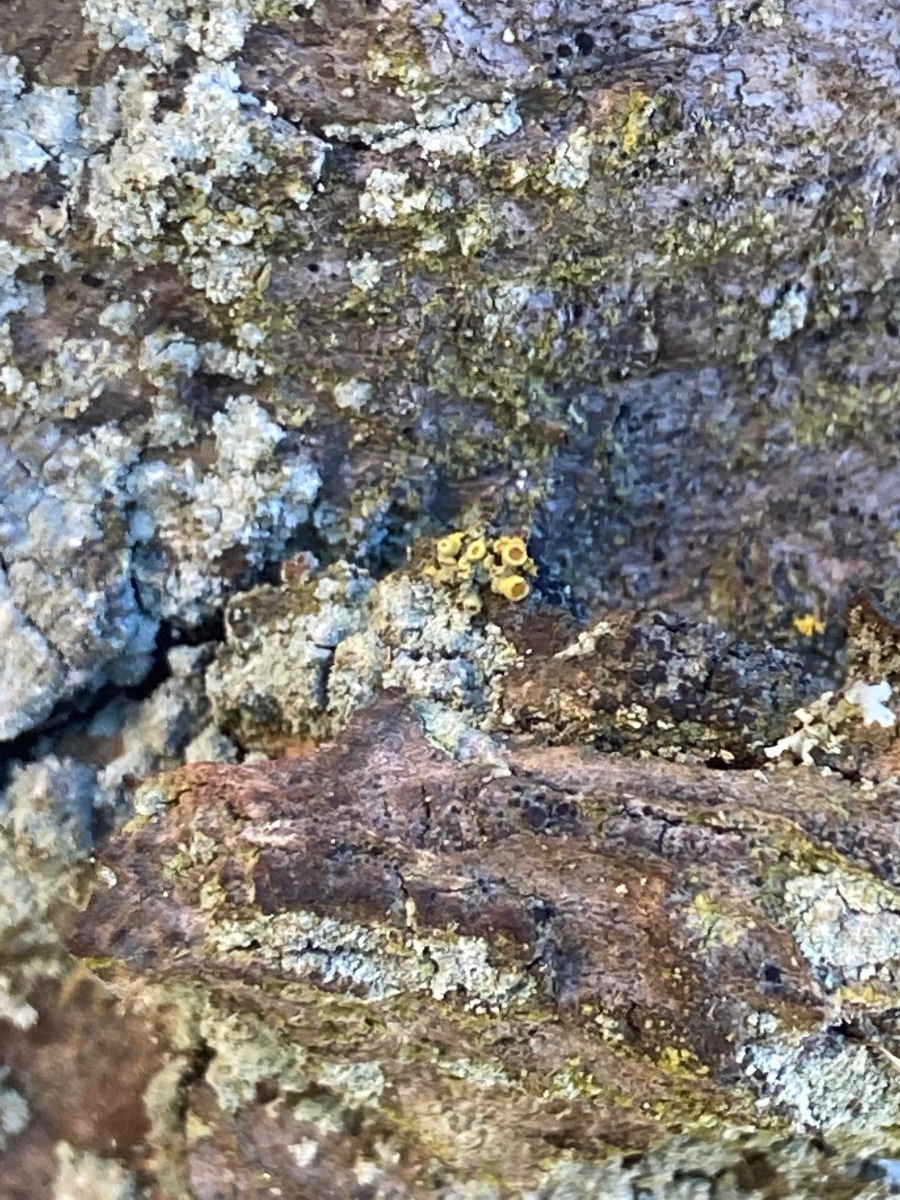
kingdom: Fungi
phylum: Ascomycota
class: Lecanoromycetes
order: Teloschistales
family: Teloschistaceae
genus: Polycauliona
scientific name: Polycauliona polycarpa
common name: mangefrugtet orangelav
